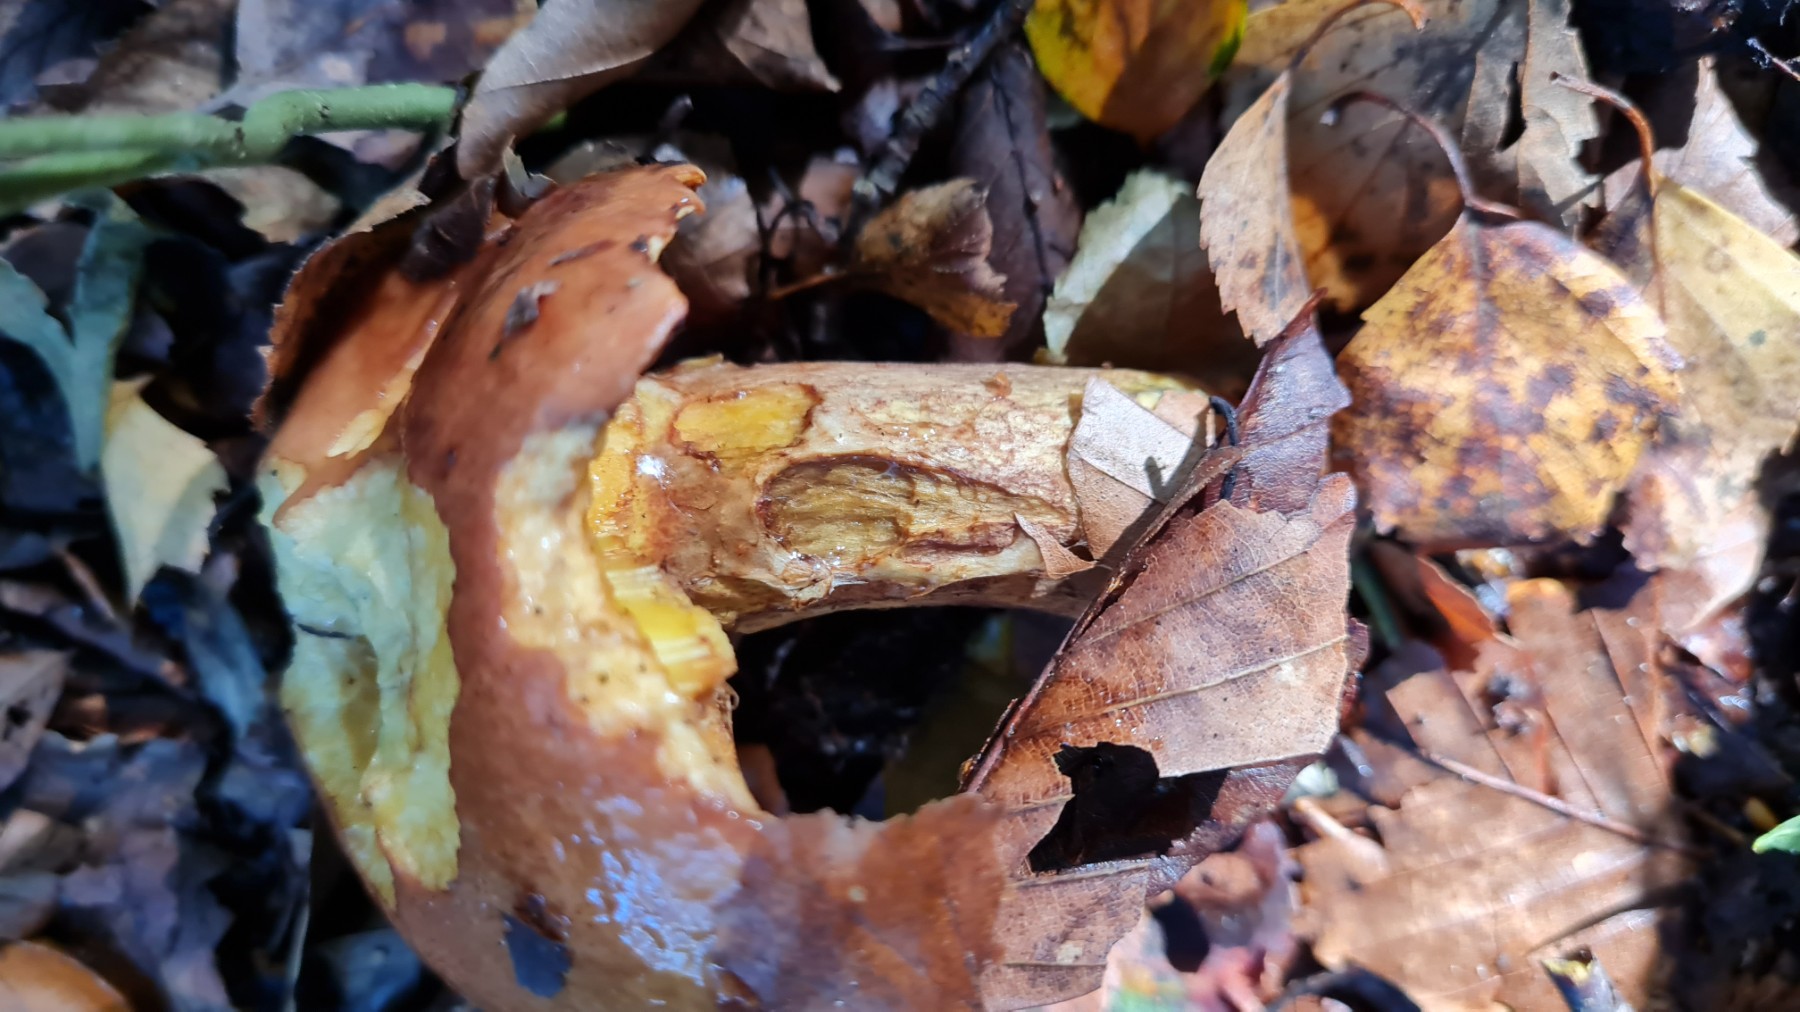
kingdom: Fungi
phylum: Basidiomycota
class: Agaricomycetes
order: Boletales
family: Suillaceae
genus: Suillus
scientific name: Suillus grevillei
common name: lærke-slimrørhat
